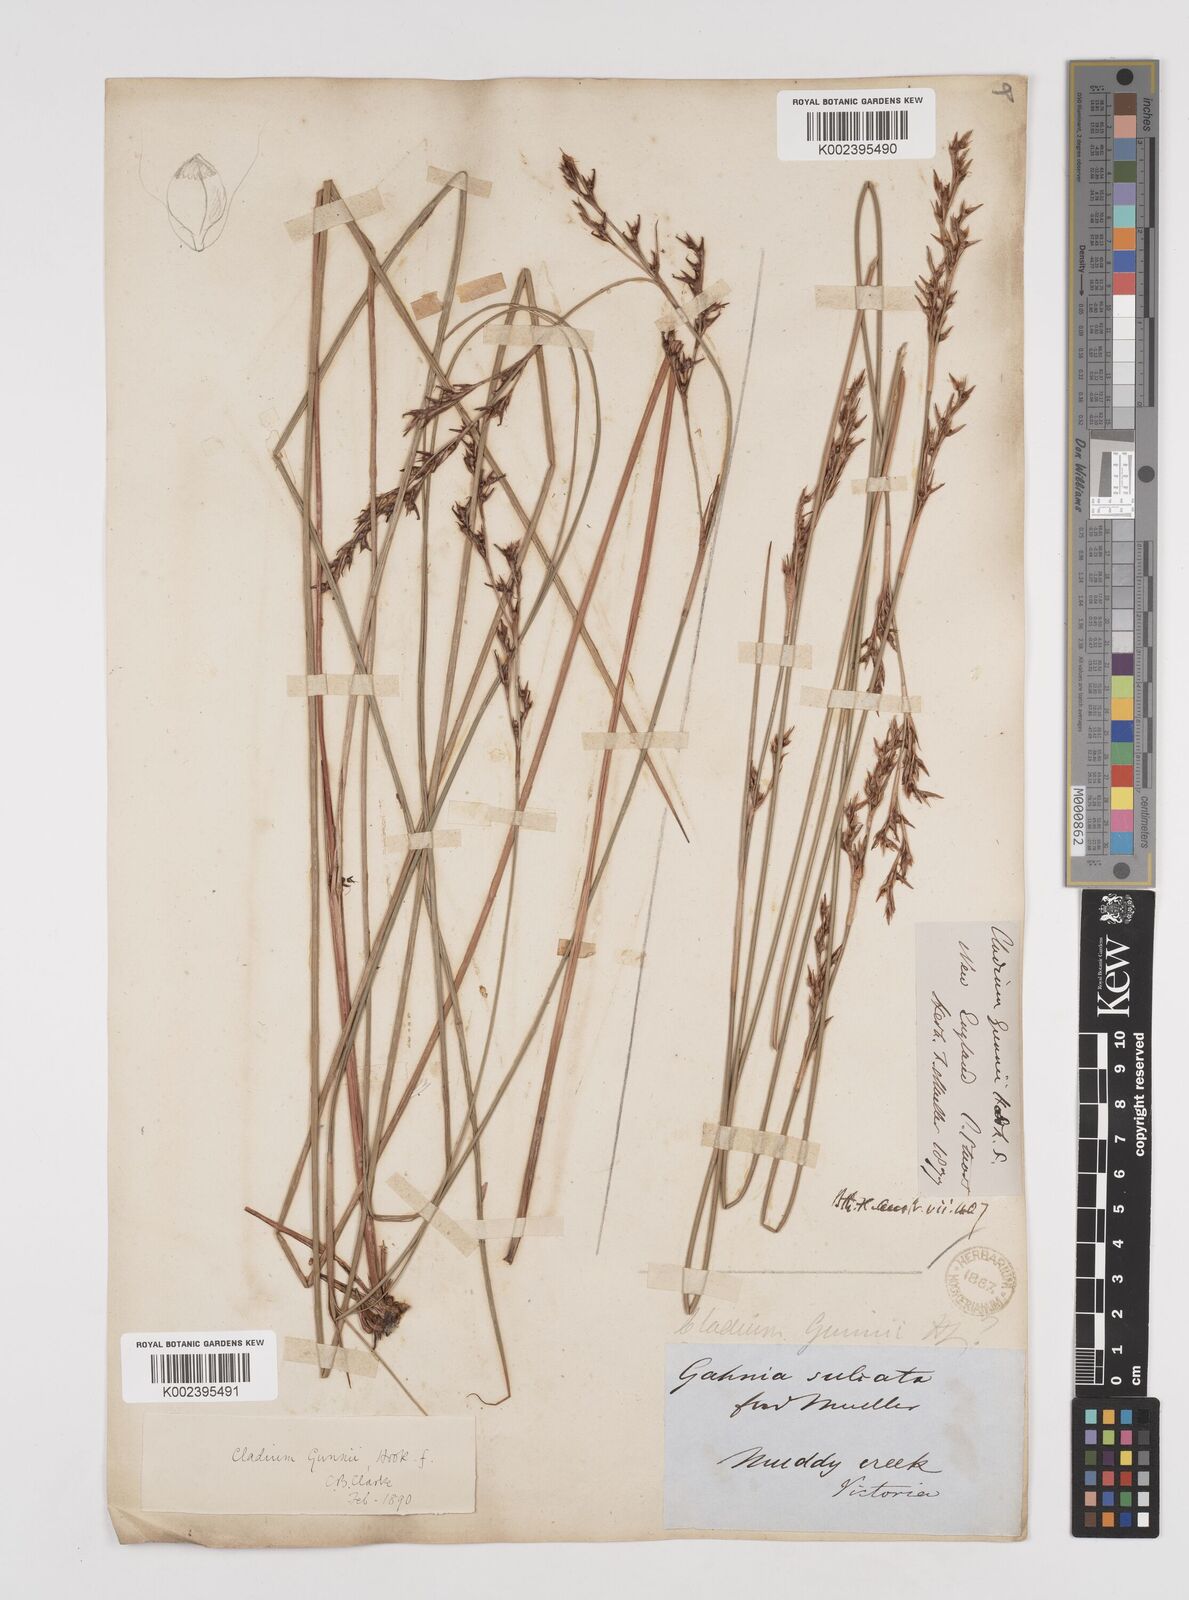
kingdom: Plantae
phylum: Tracheophyta
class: Liliopsida
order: Poales
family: Cyperaceae
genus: Machaerina
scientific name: Machaerina gunnii
